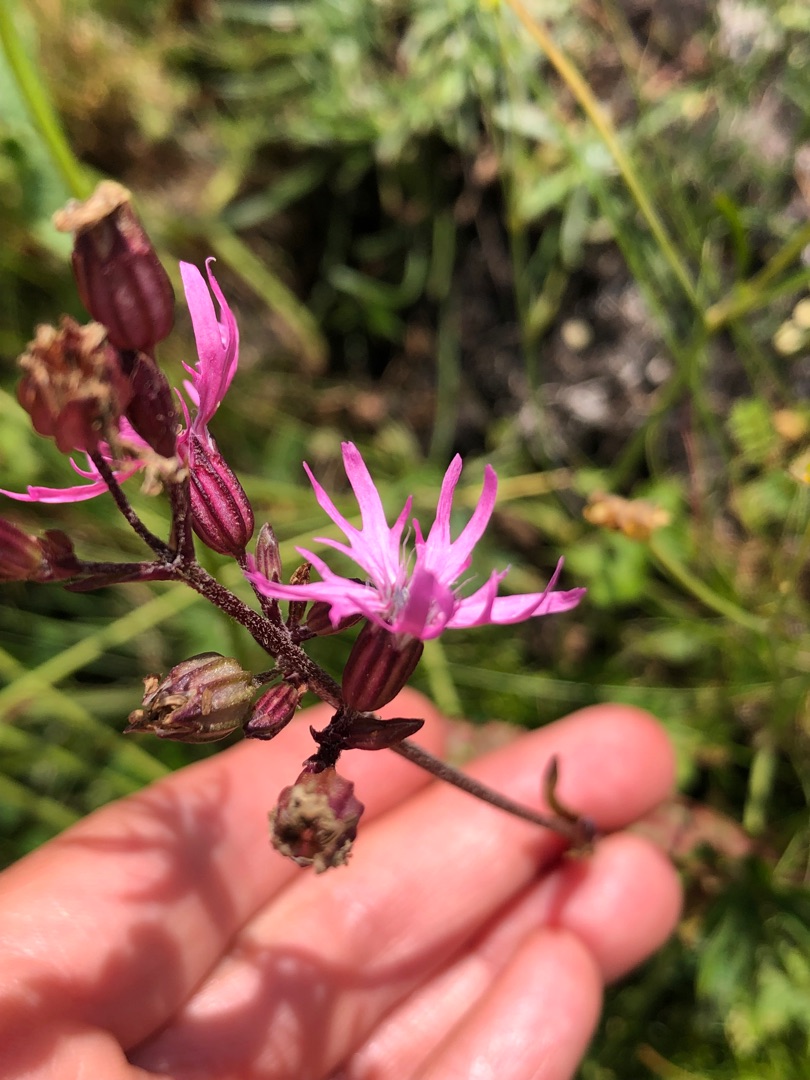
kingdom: Plantae
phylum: Tracheophyta
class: Magnoliopsida
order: Caryophyllales
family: Caryophyllaceae
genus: Silene
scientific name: Silene flos-cuculi
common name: Trævlekrone
